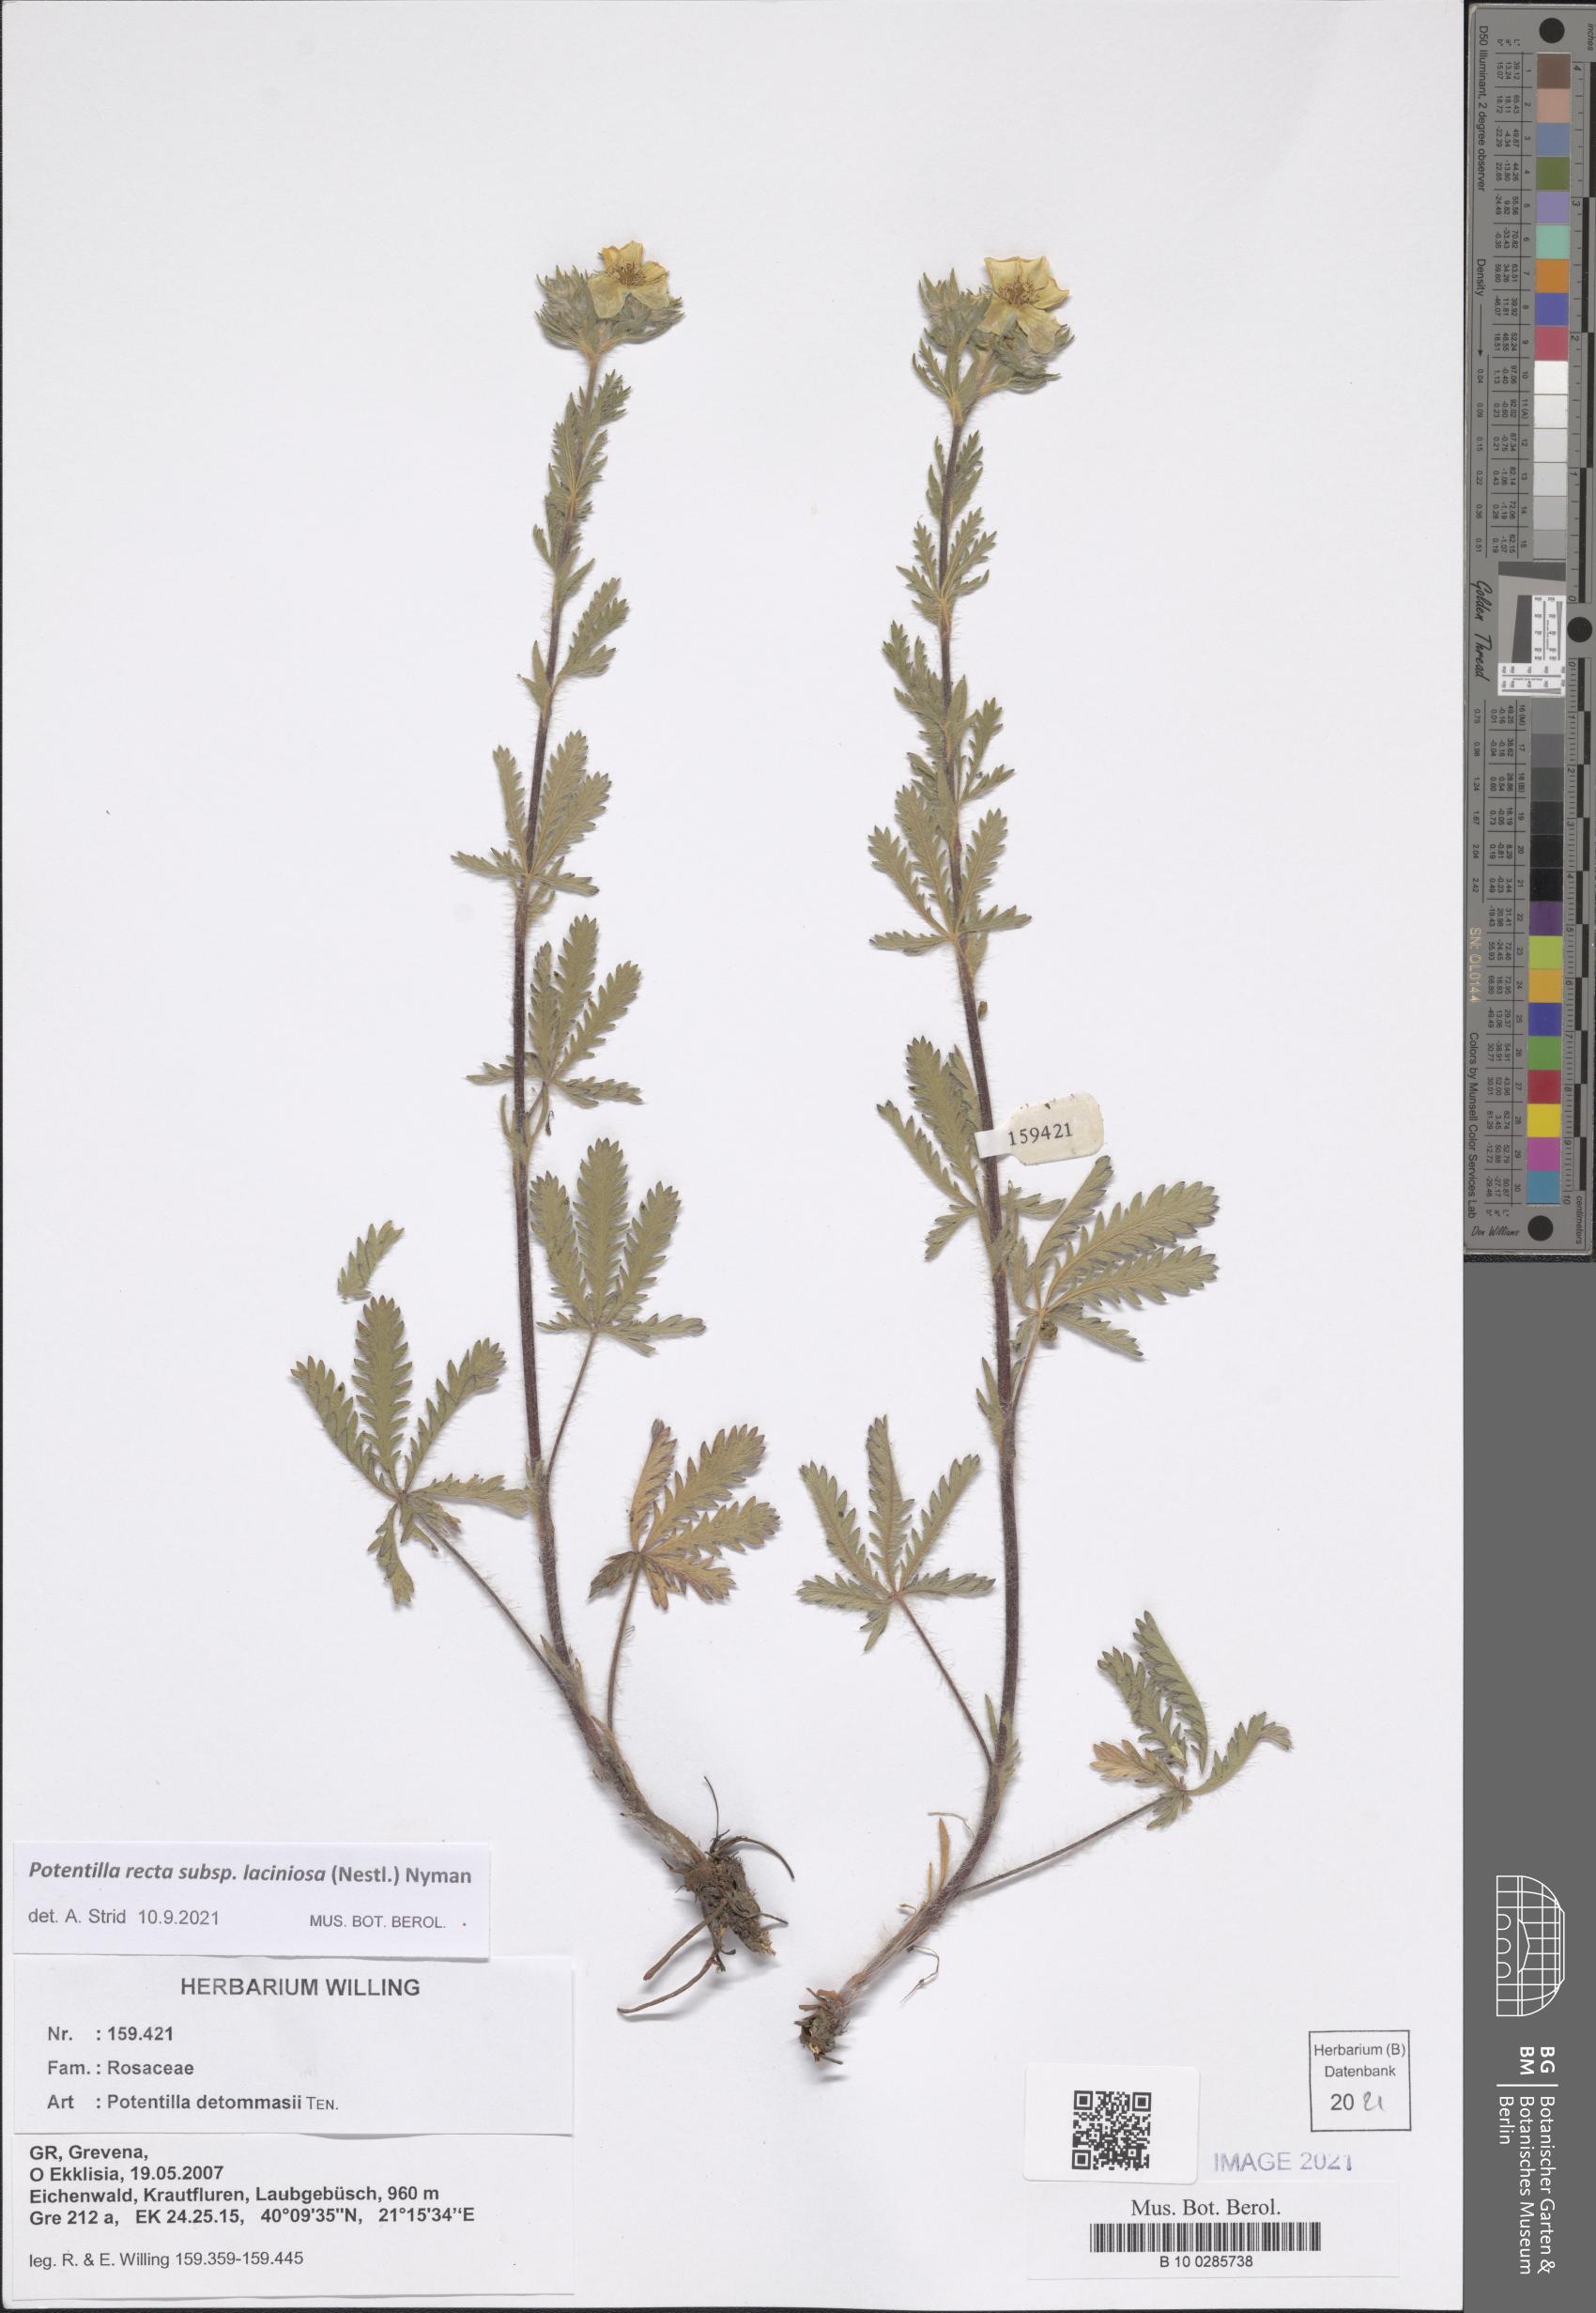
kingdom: Plantae
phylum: Tracheophyta
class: Magnoliopsida
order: Rosales
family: Rosaceae
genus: Potentilla
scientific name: Potentilla recta
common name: Sulphur cinquefoil
